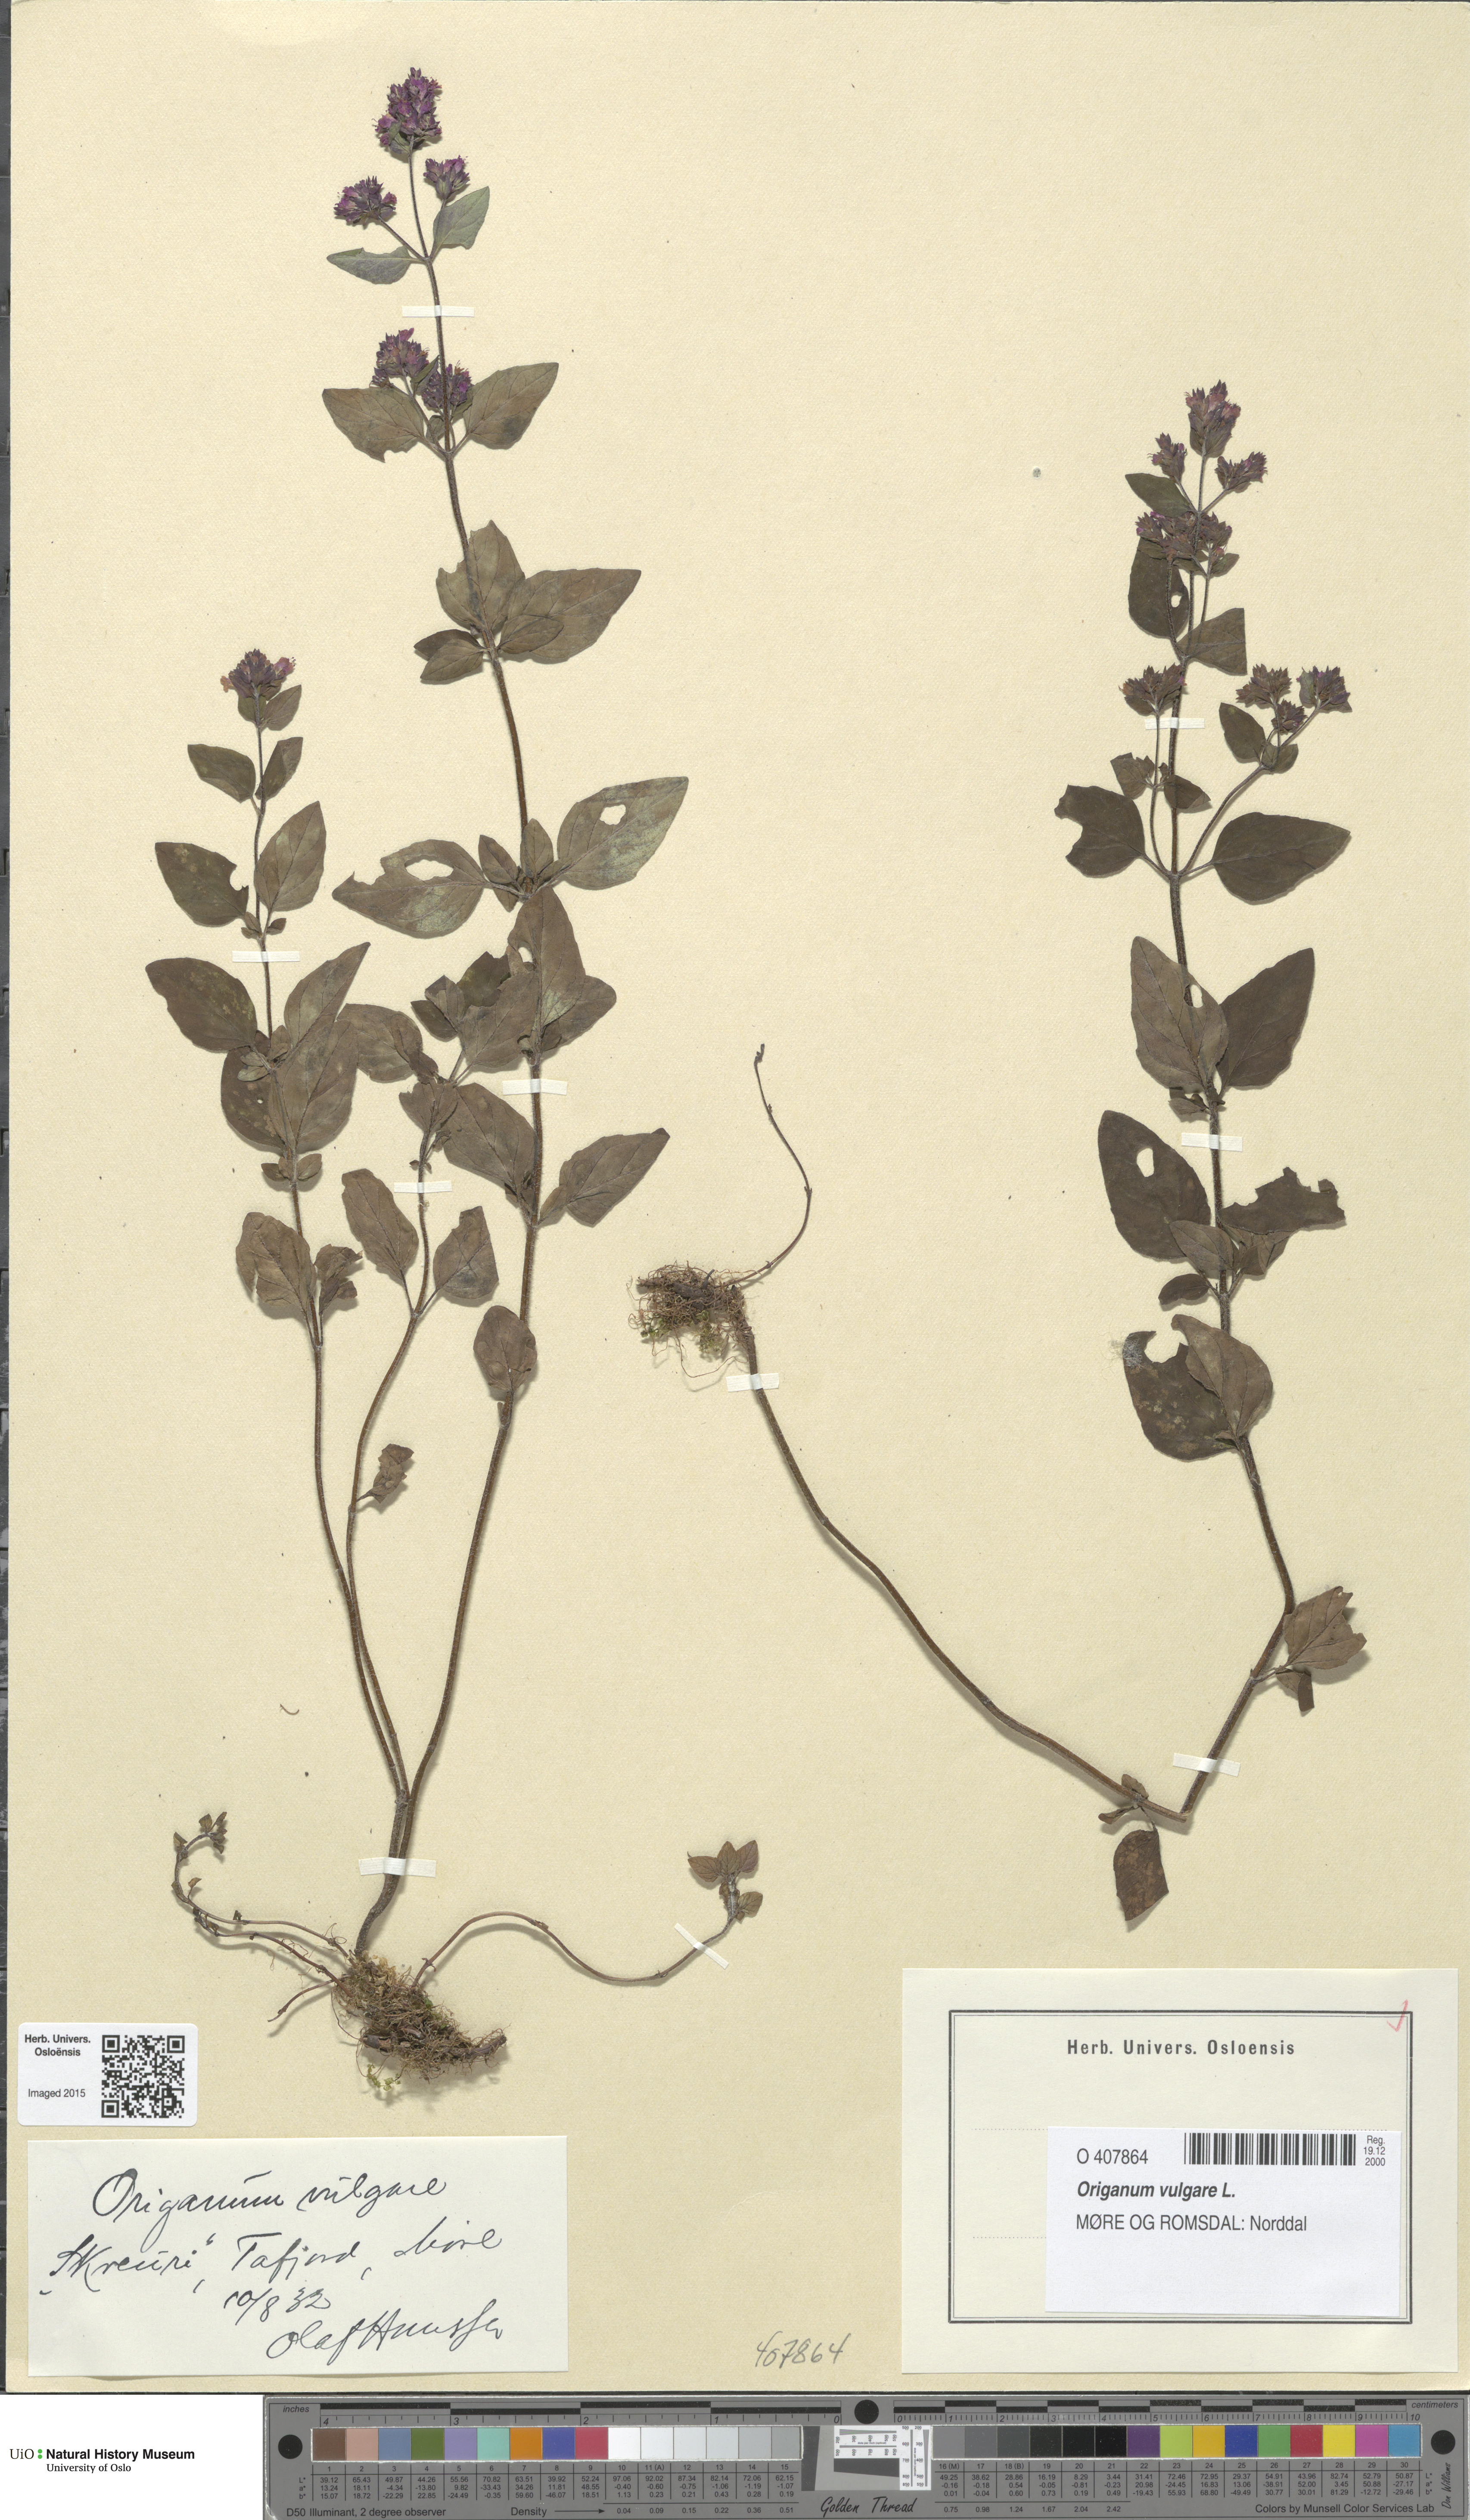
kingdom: Plantae
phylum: Tracheophyta
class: Magnoliopsida
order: Lamiales
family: Lamiaceae
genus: Origanum
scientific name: Origanum vulgare
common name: Wild marjoram
